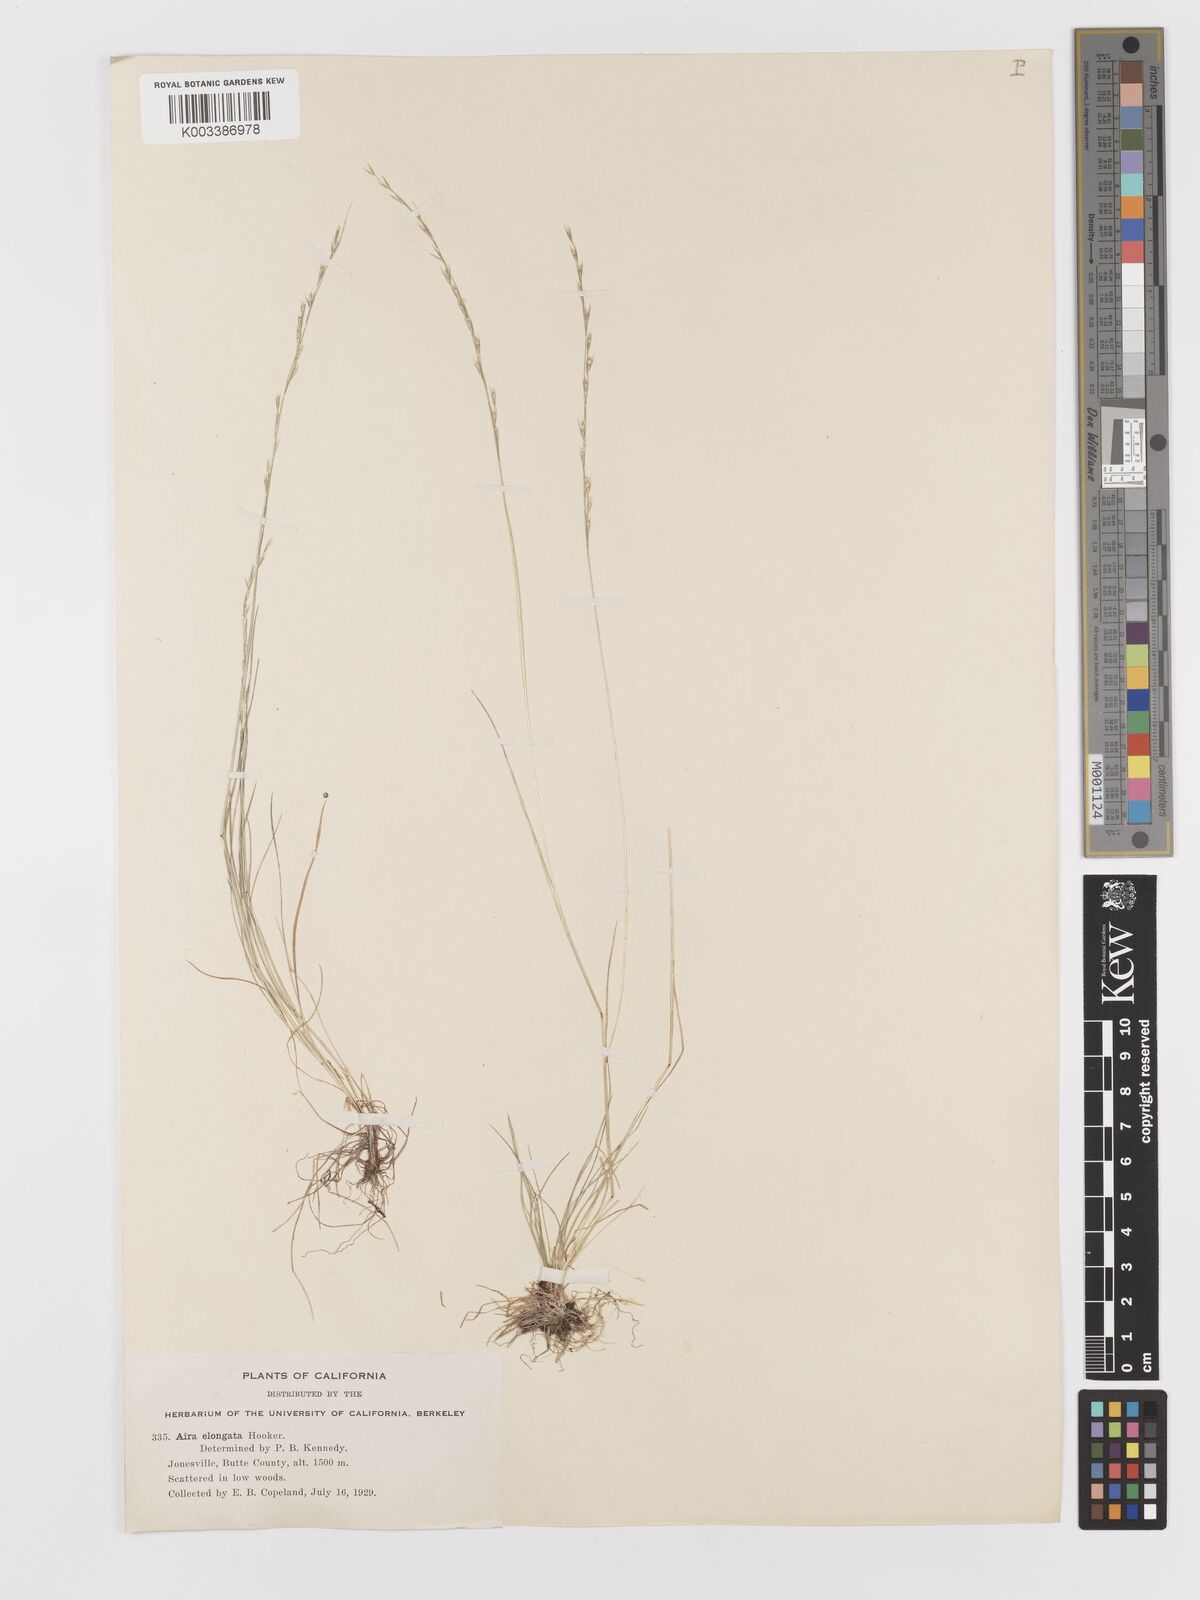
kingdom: Plantae
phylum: Tracheophyta
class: Liliopsida
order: Poales
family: Poaceae
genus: Deschampsia
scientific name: Deschampsia elongata
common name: Slender hairgrass
